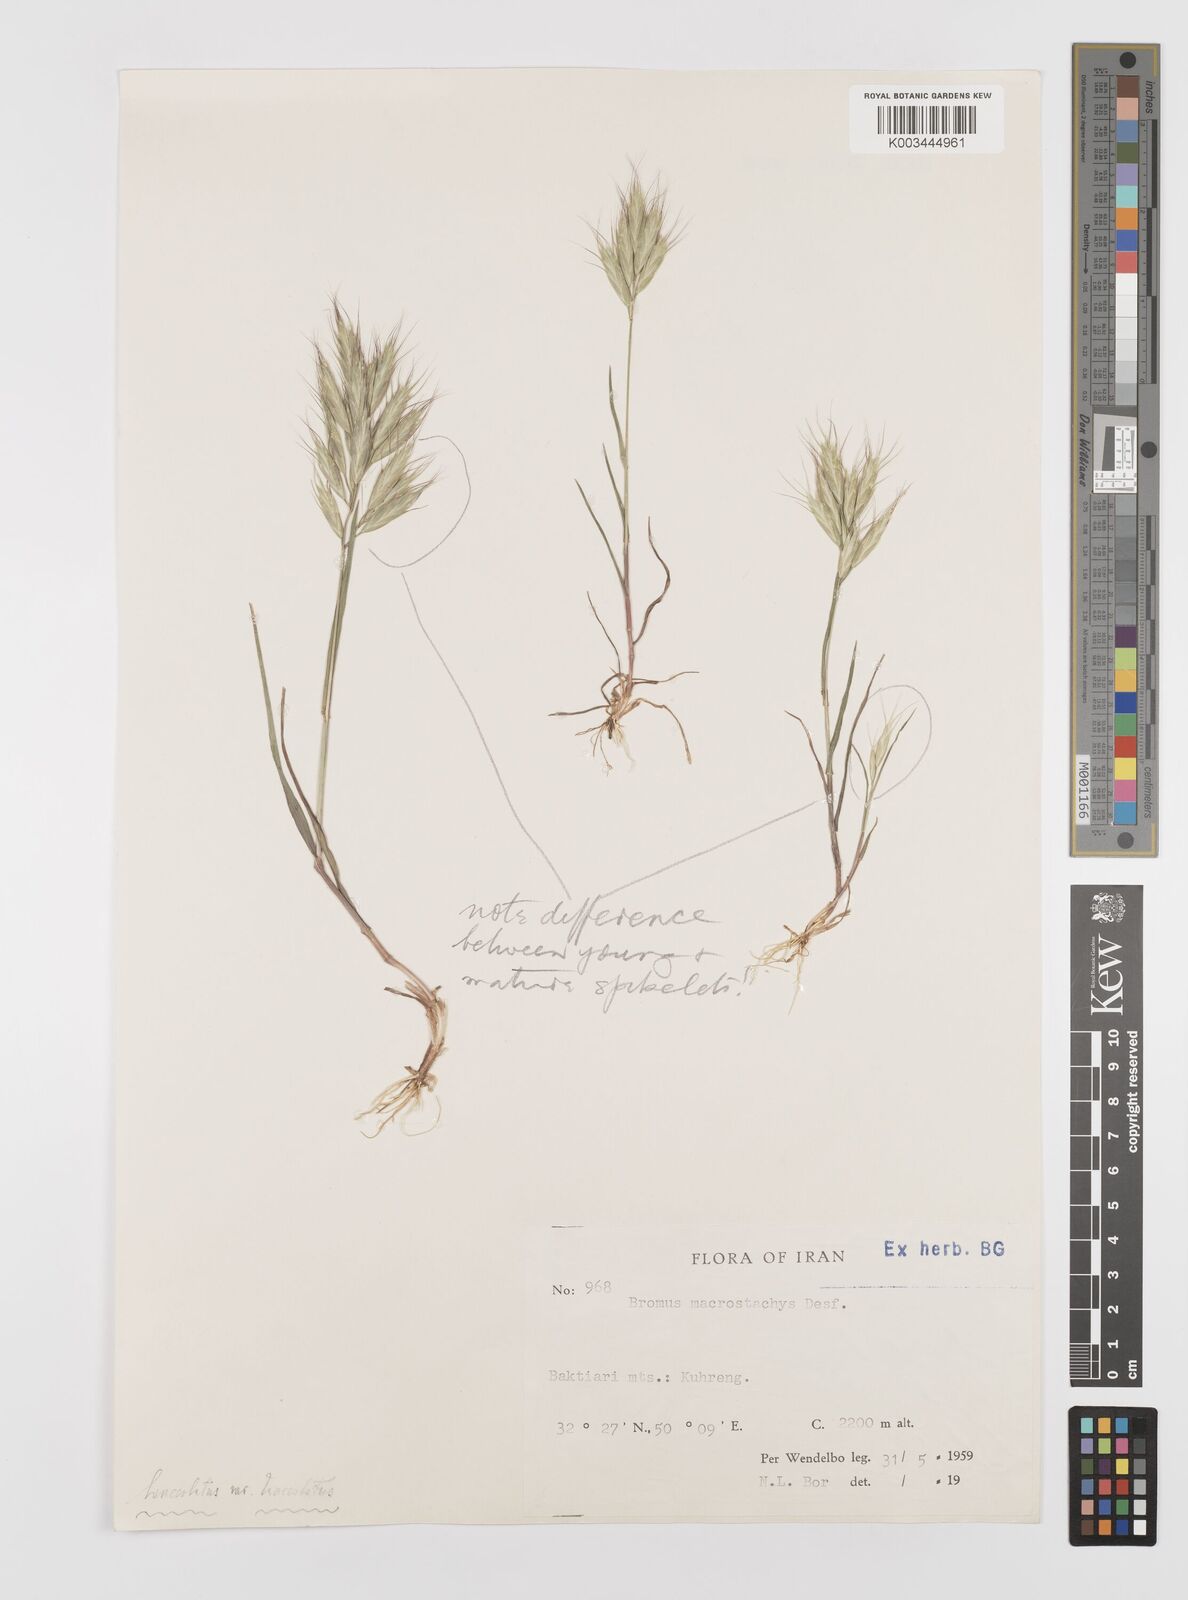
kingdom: Plantae
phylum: Tracheophyta
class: Liliopsida
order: Poales
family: Poaceae
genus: Bromus
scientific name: Bromus lanceolatus
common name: Mediterranean brome
